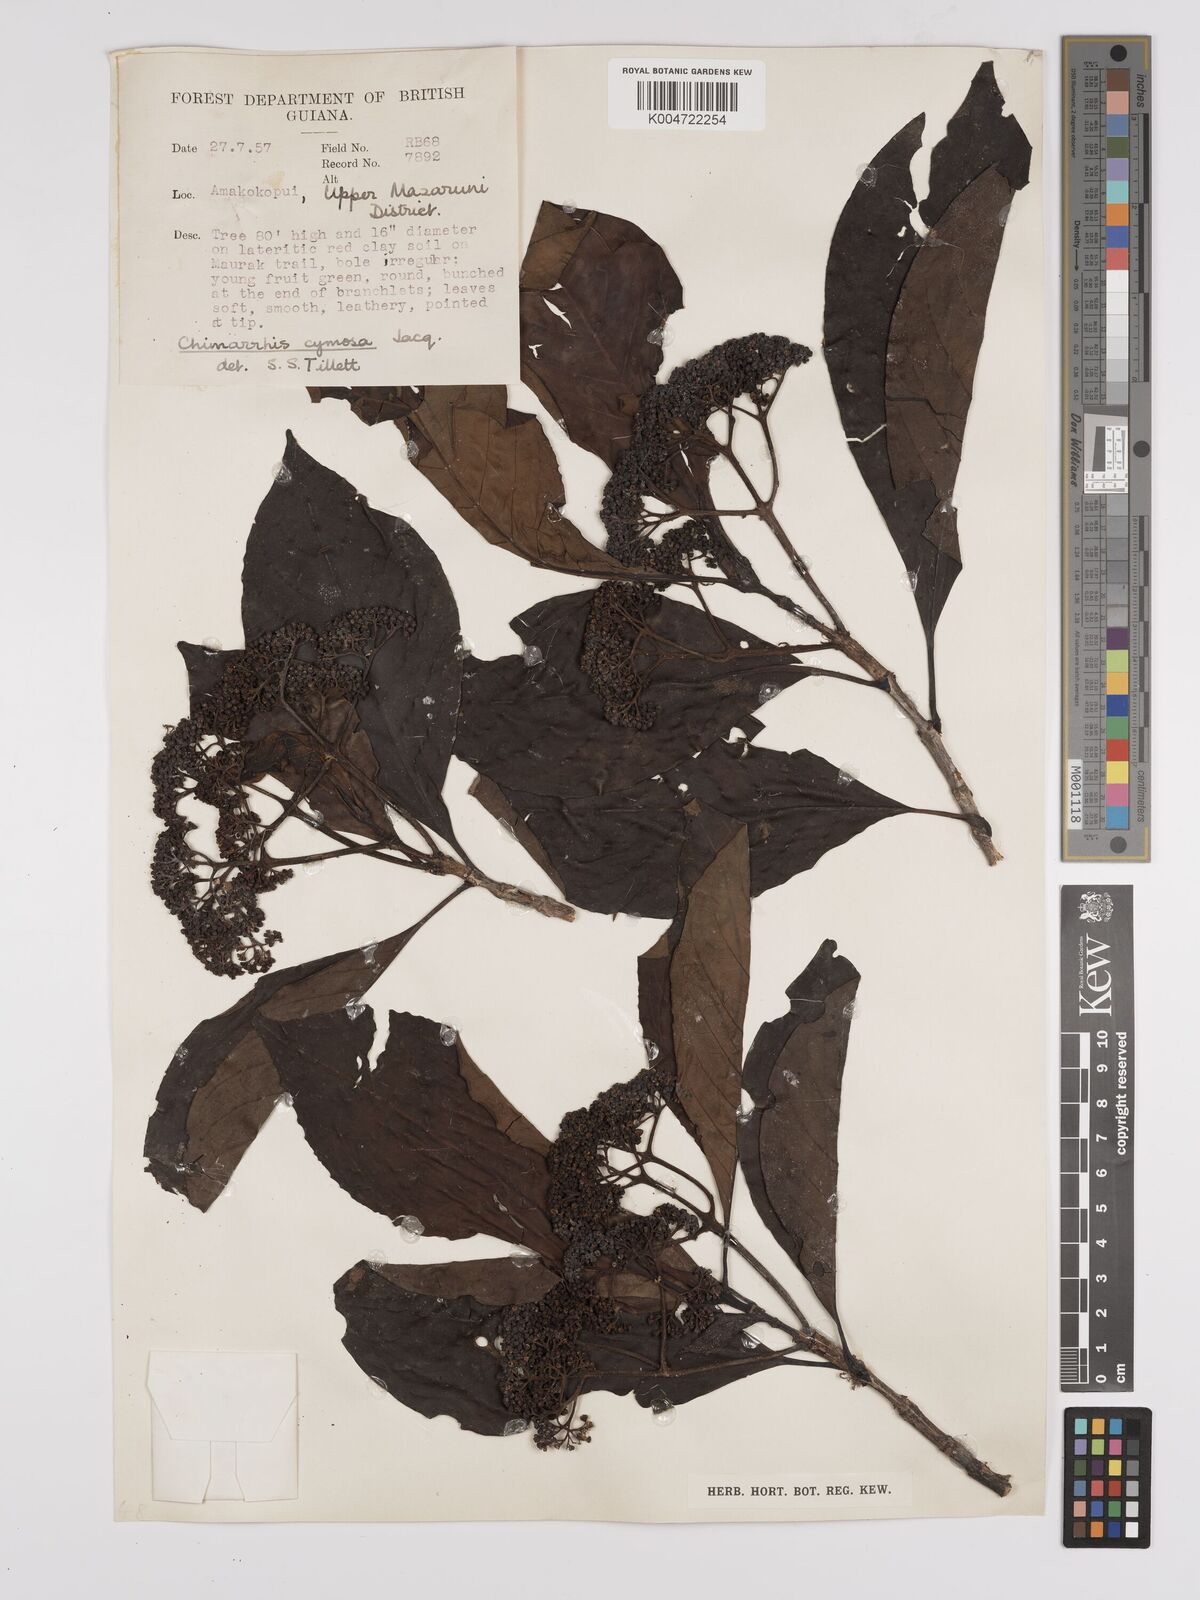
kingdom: Plantae
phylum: Tracheophyta
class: Magnoliopsida
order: Gentianales
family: Rubiaceae
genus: Chimarrhis
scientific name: Chimarrhis cymosa
